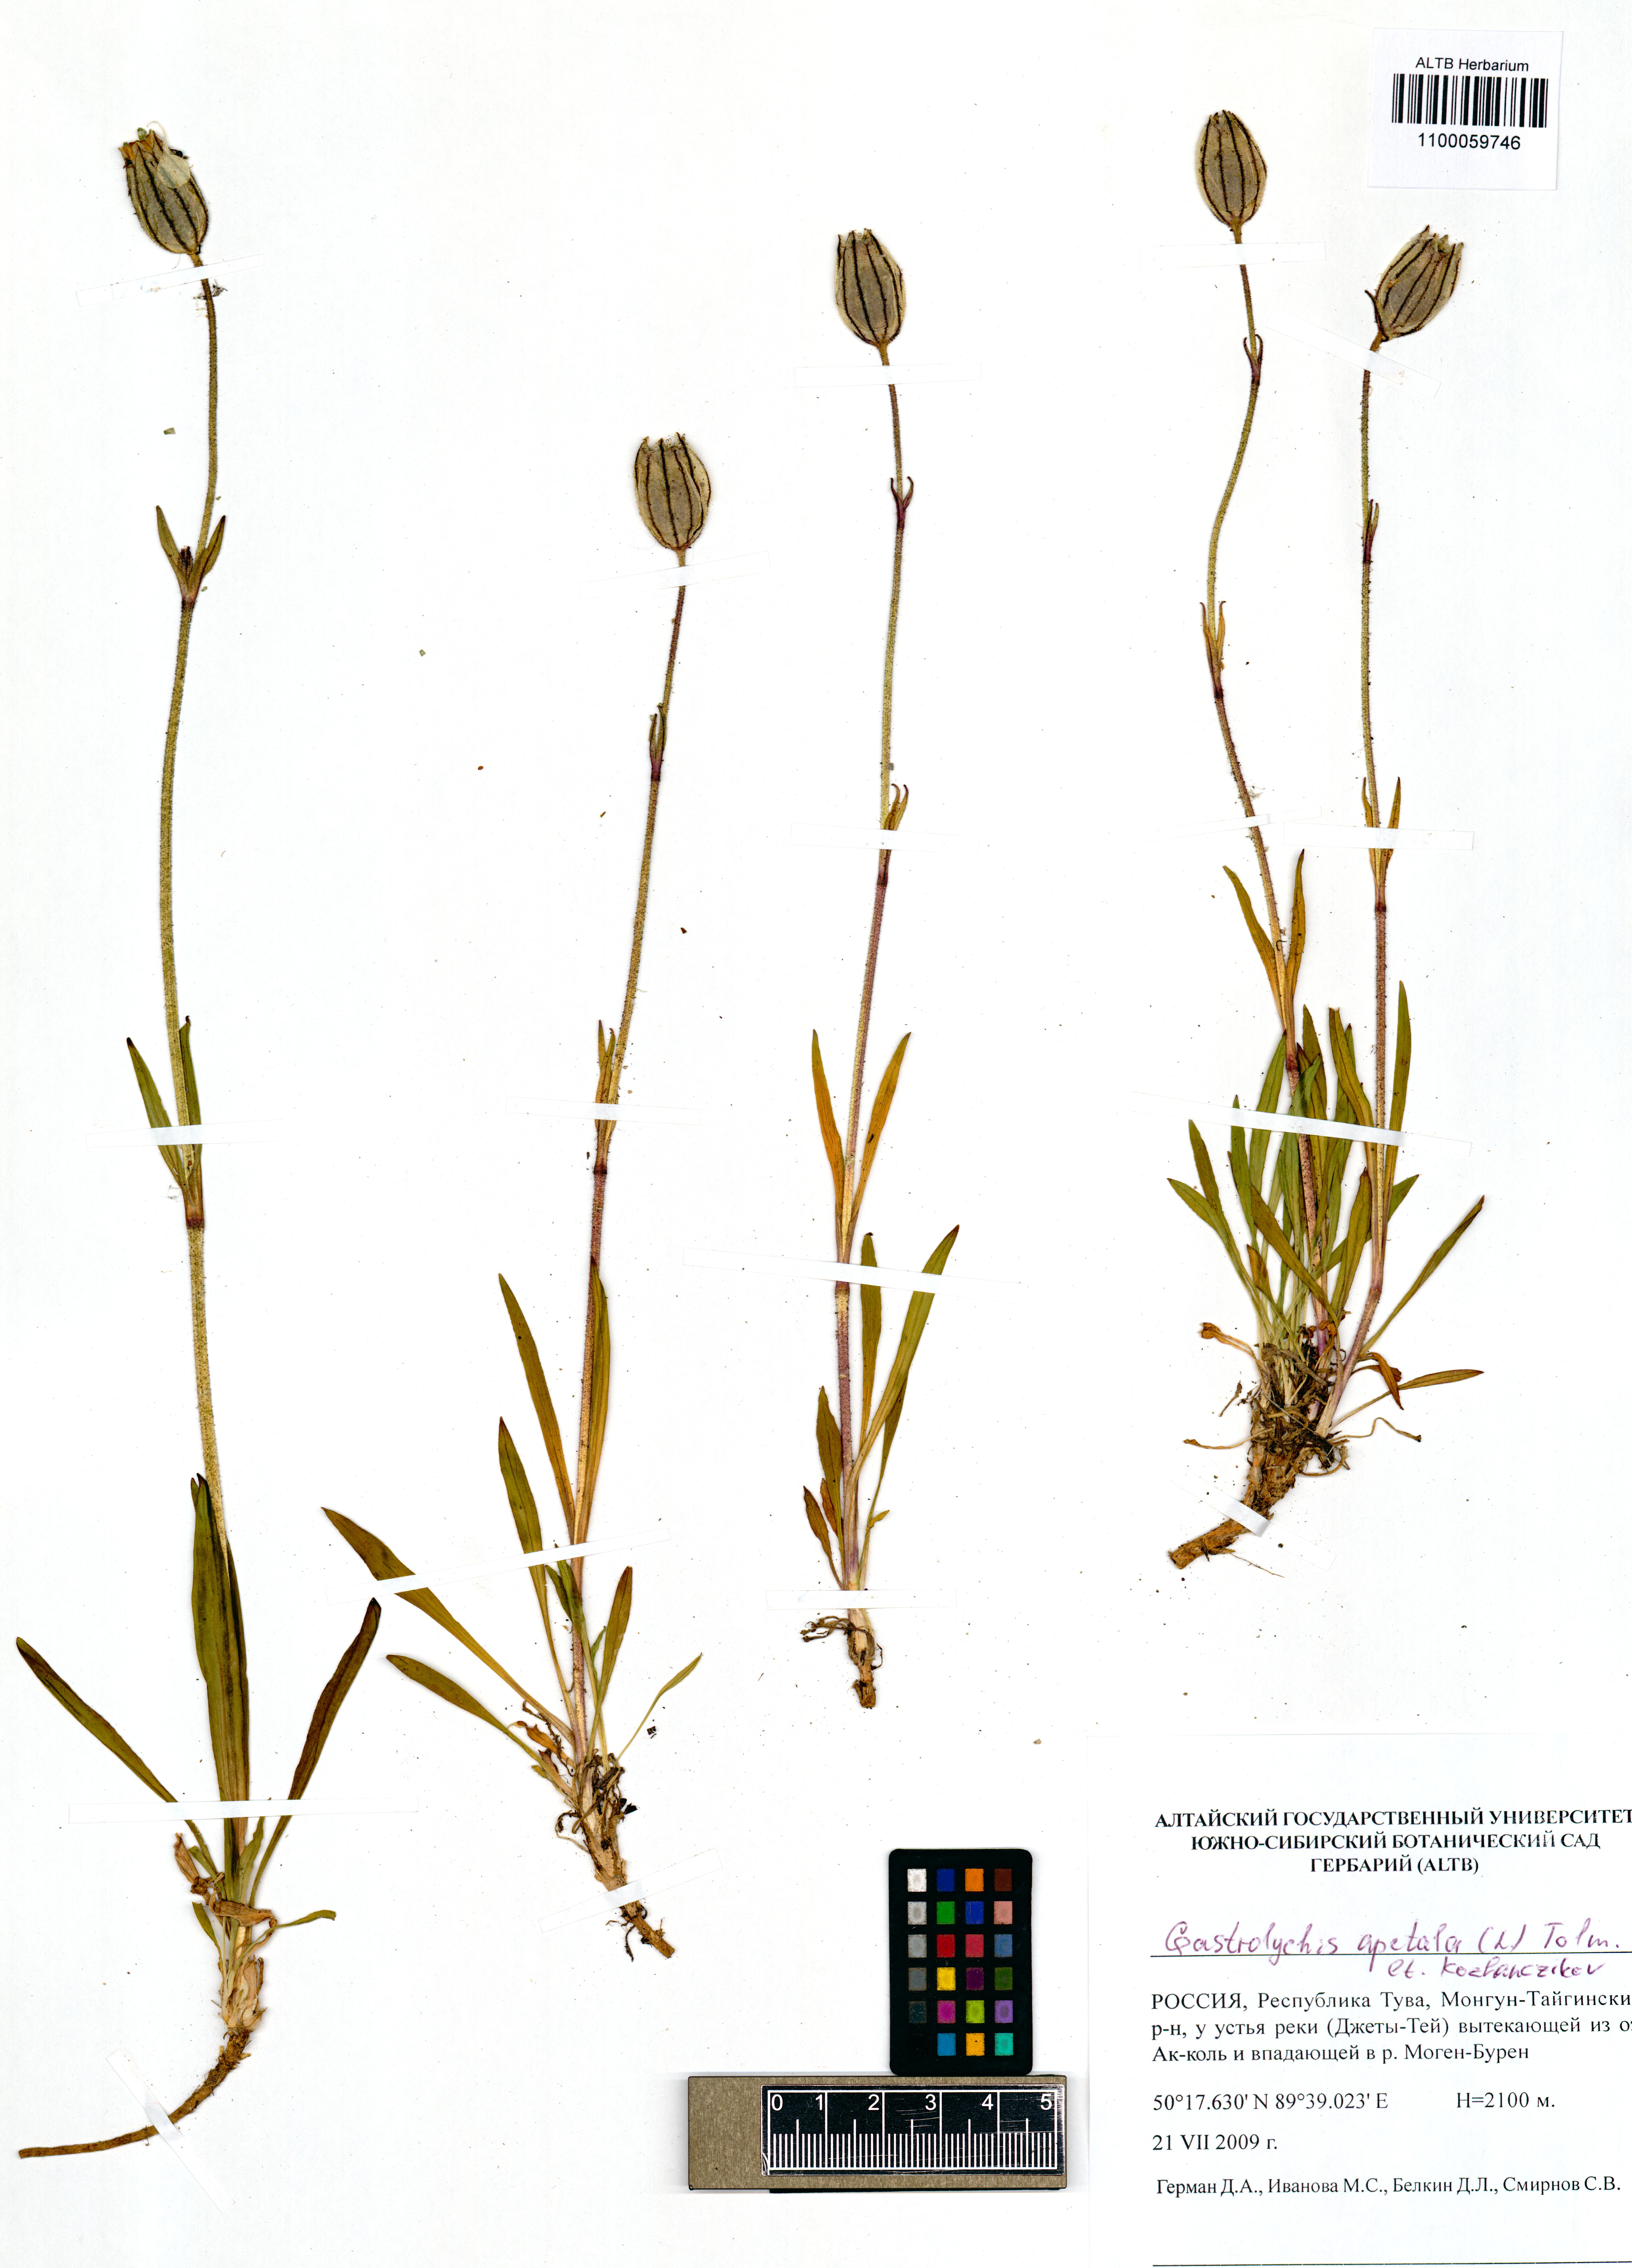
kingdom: Plantae
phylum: Tracheophyta
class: Magnoliopsida
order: Caryophyllales
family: Caryophyllaceae
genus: Silene
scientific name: Silene wahlbergella
